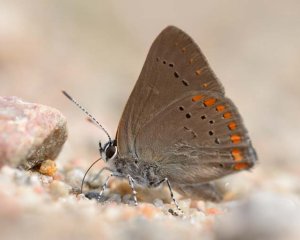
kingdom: Animalia
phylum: Arthropoda
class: Insecta
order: Lepidoptera
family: Lycaenidae
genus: Harkenclenus
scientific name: Harkenclenus titus
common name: Coral Hairstreak
